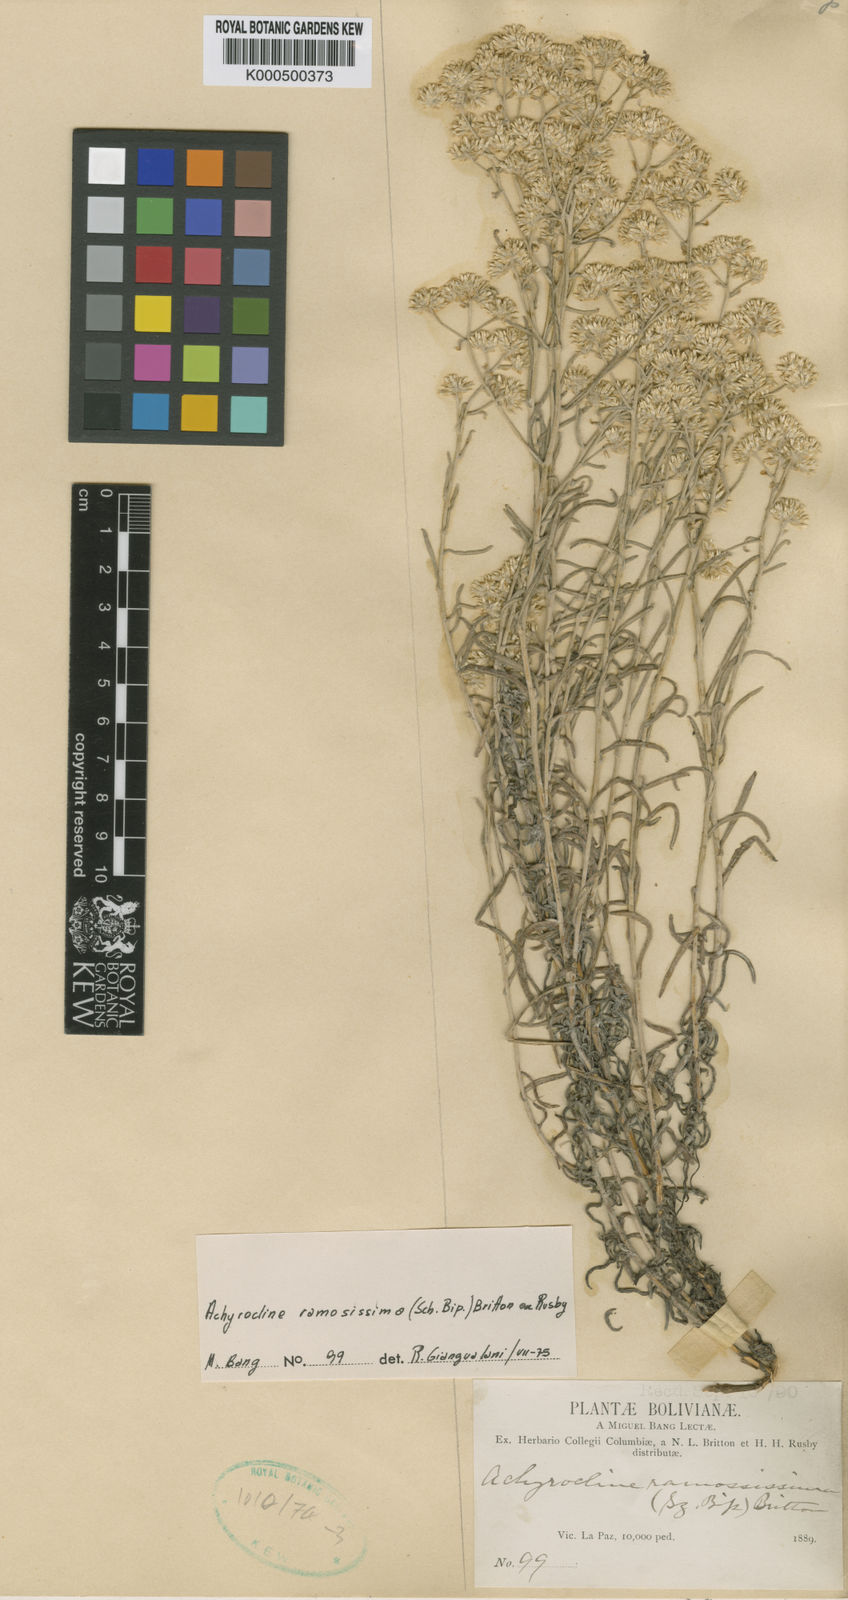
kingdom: Plantae
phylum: Tracheophyta
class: Magnoliopsida
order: Asterales
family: Asteraceae
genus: Achyrocline
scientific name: Achyrocline
